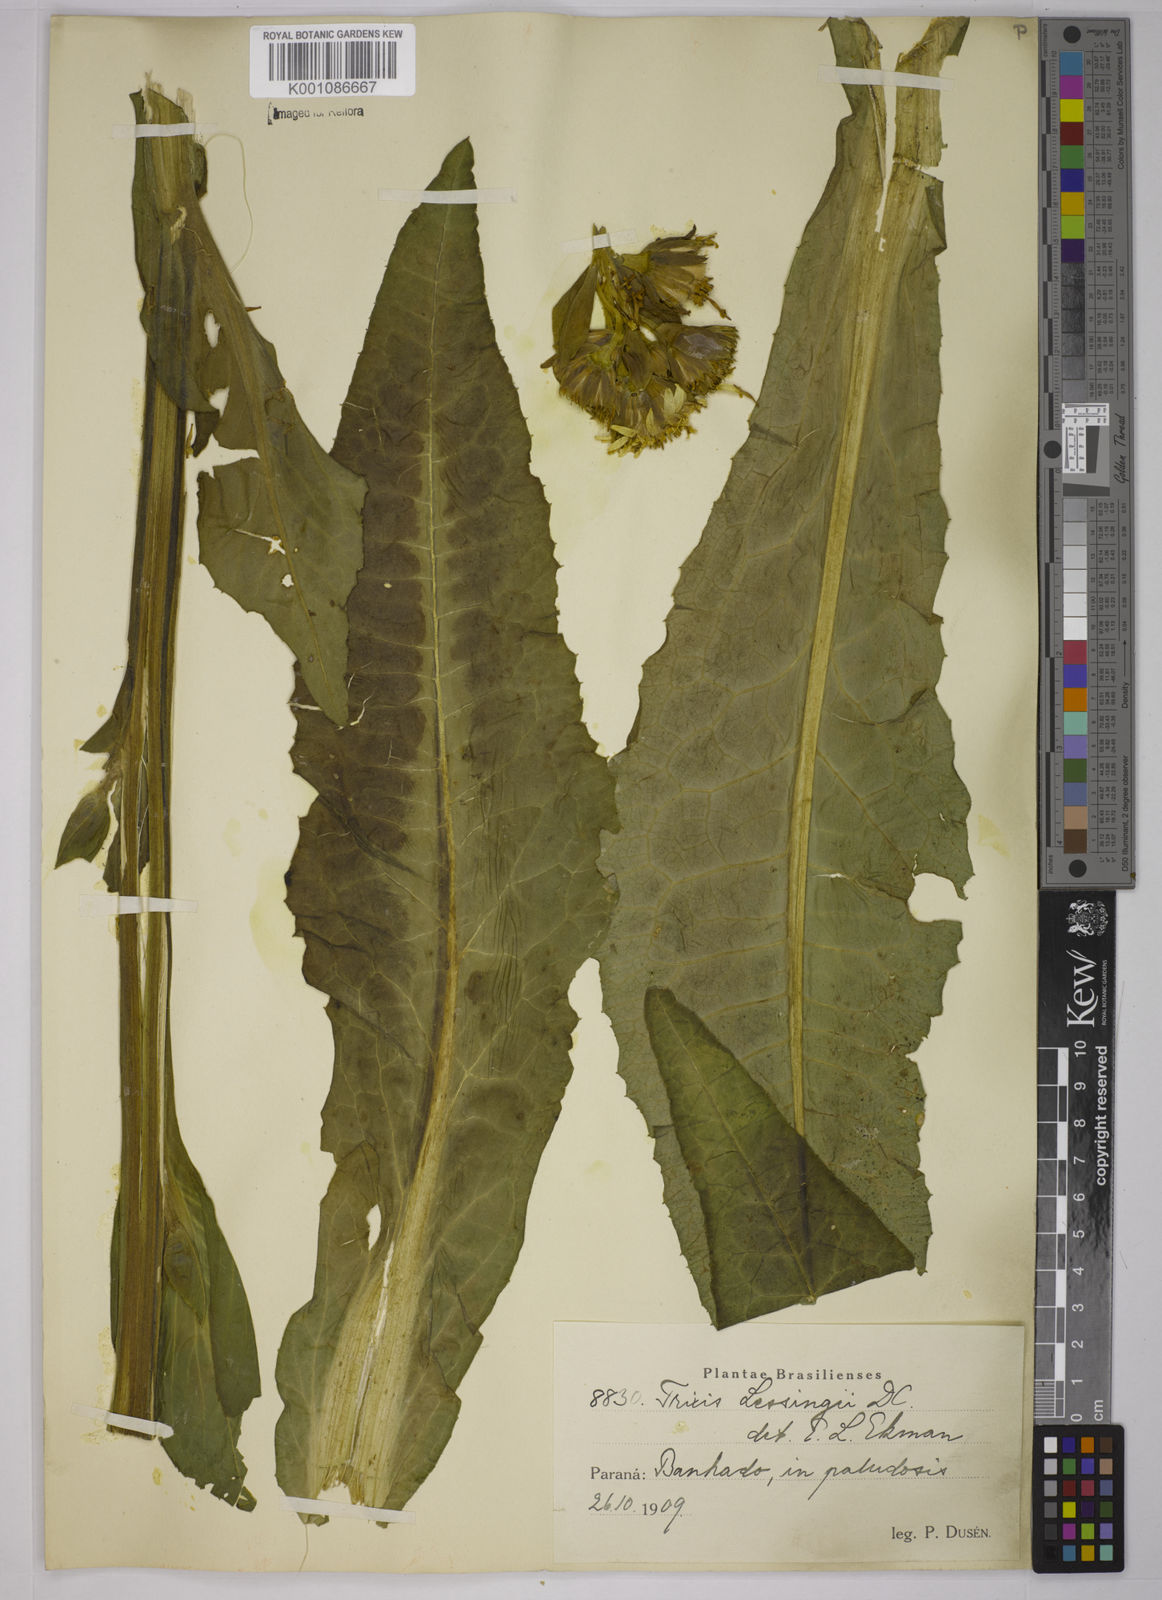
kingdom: Plantae
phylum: Tracheophyta
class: Magnoliopsida
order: Asterales
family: Asteraceae
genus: Trixis
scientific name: Trixis lessingii
